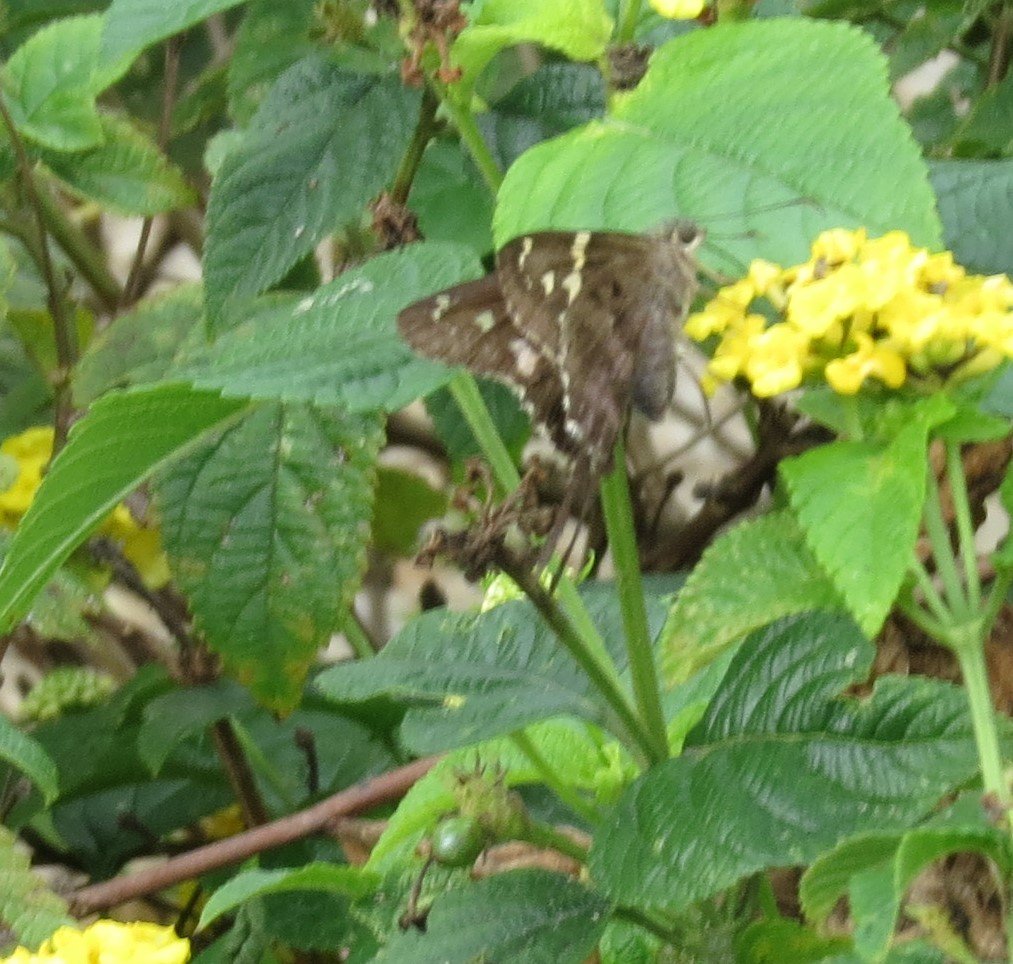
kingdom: Animalia
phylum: Arthropoda
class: Insecta
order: Lepidoptera
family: Hesperiidae
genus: Urbanus
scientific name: Urbanus proteus
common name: Long-tailed Skipper
